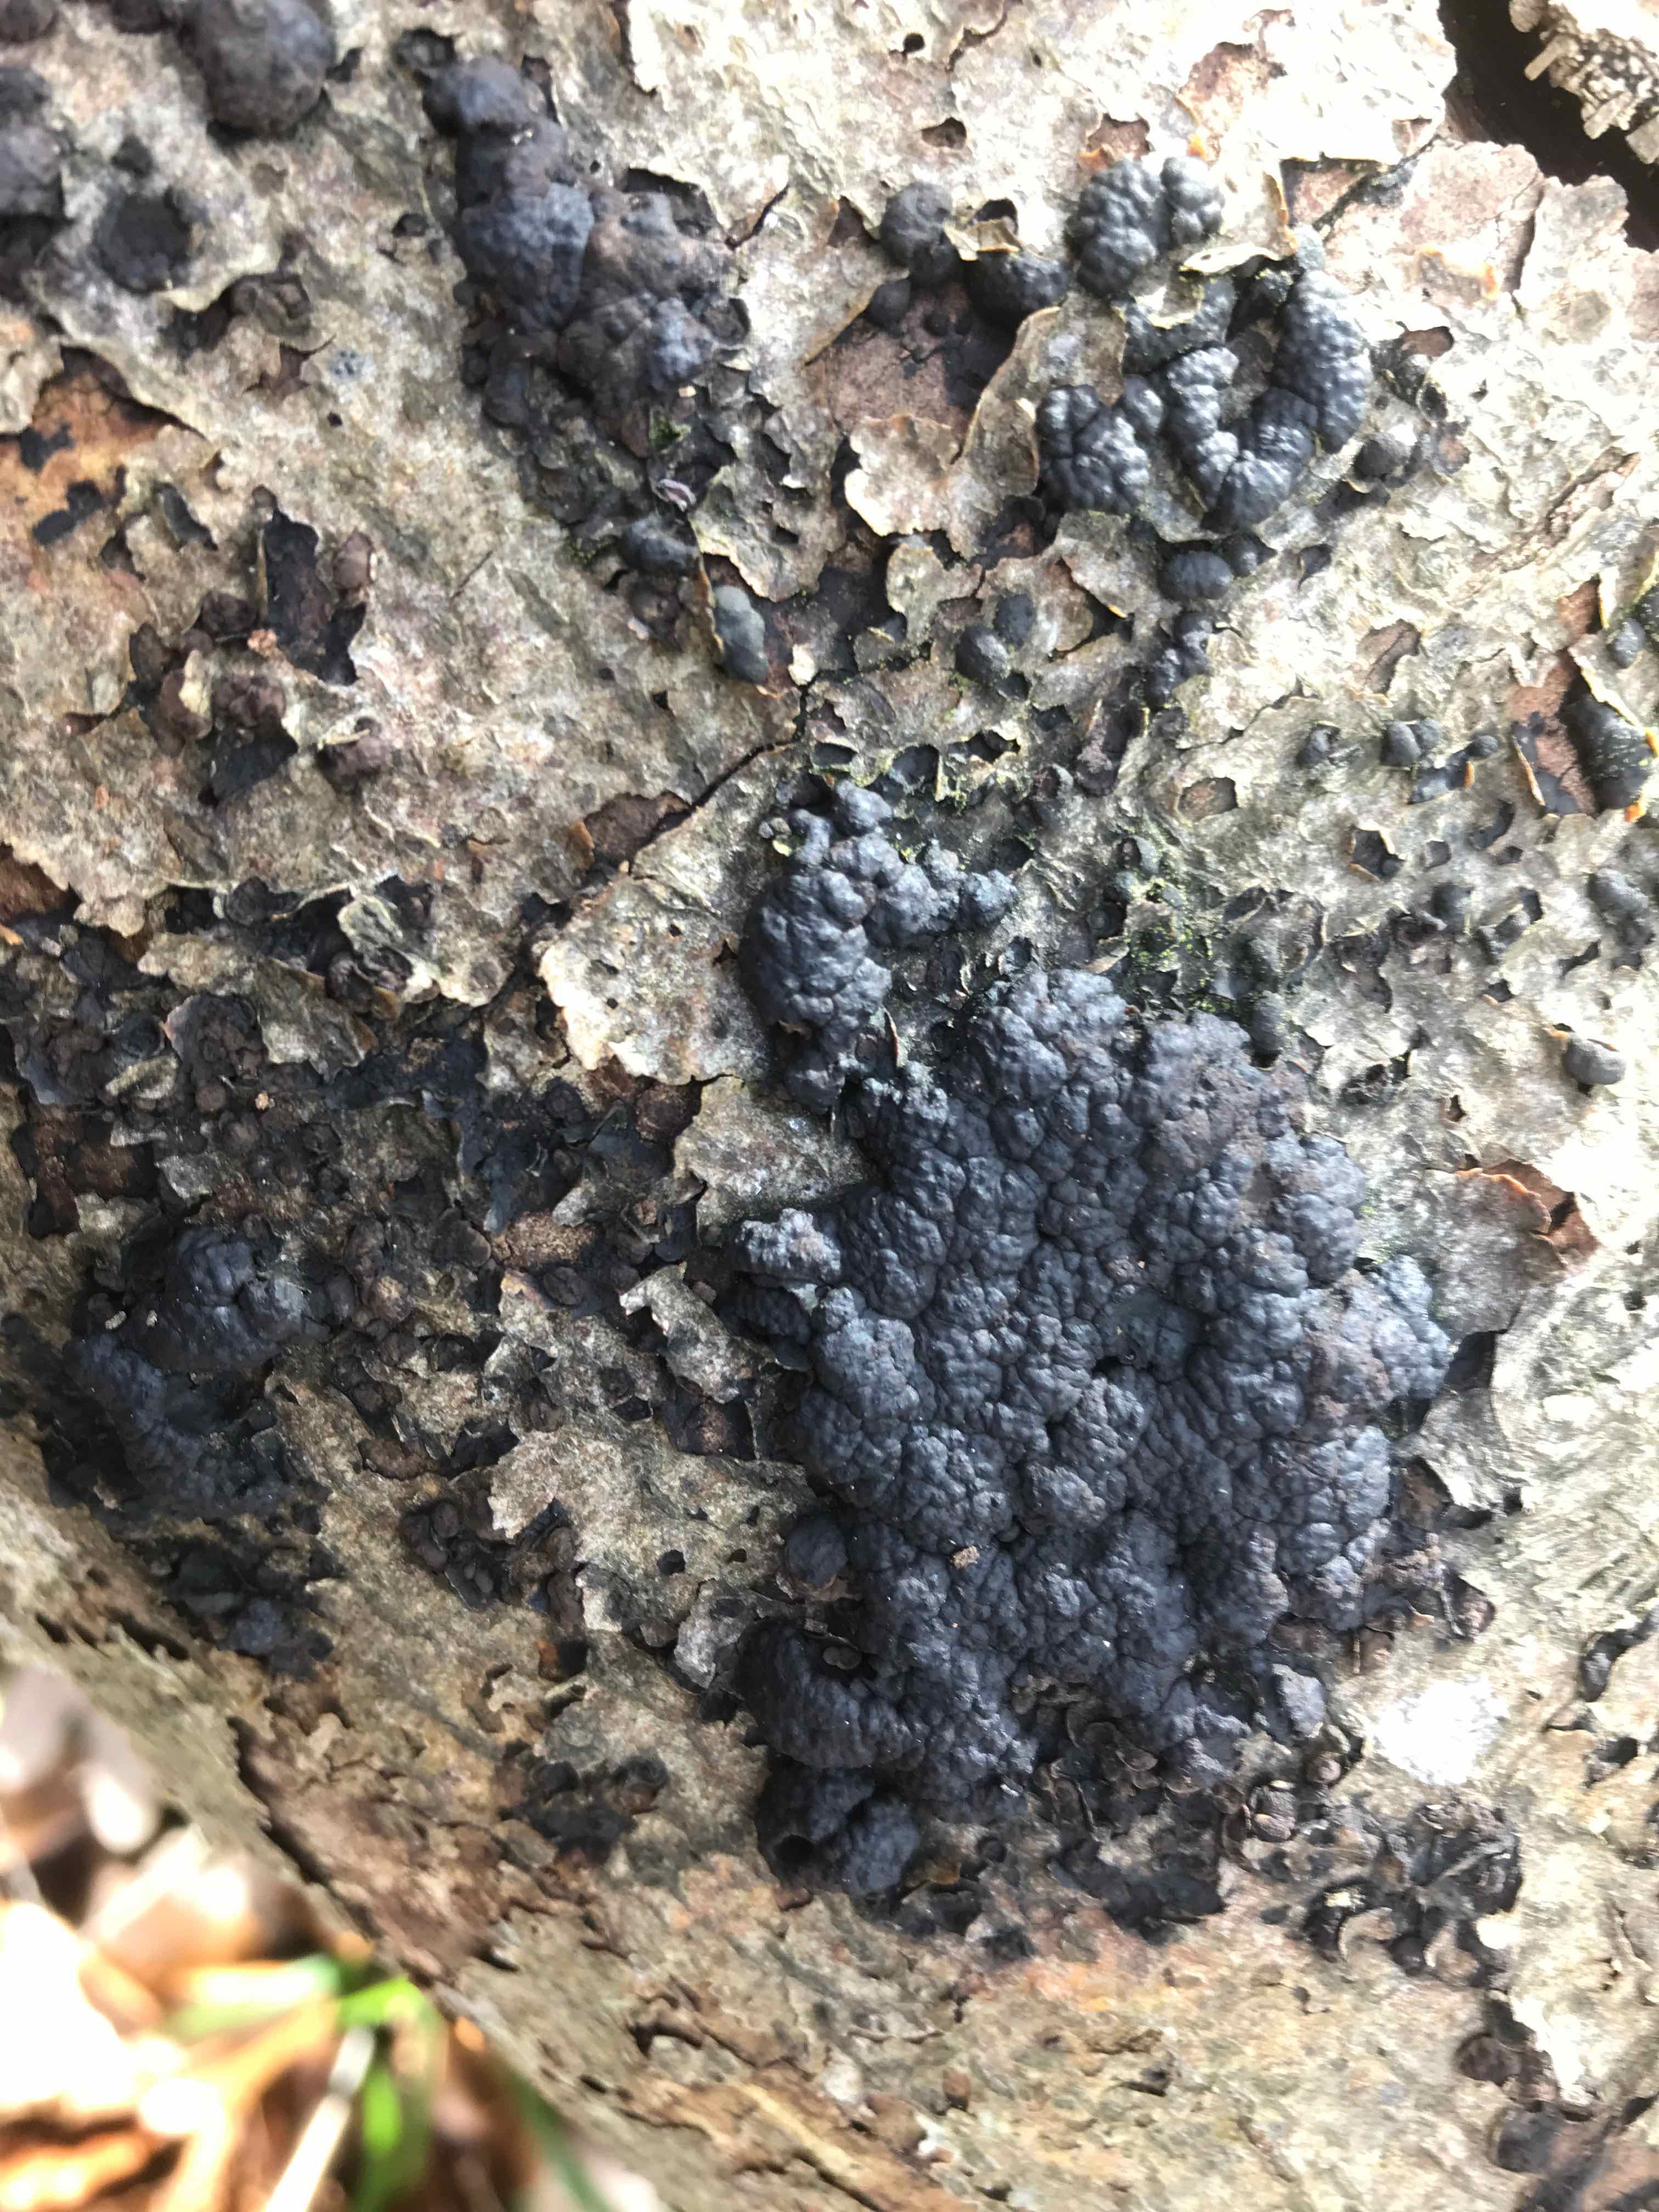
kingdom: Fungi
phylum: Ascomycota
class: Sordariomycetes
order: Xylariales
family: Hypoxylaceae
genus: Jackrogersella
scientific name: Jackrogersella cohaerens
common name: sammenflydende kulbær
